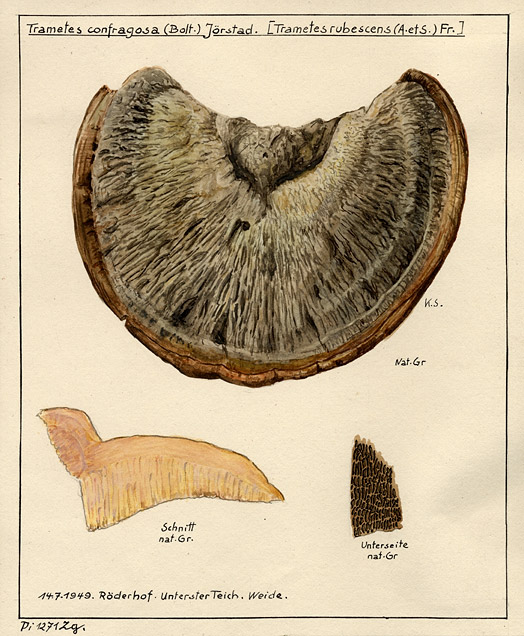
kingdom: Fungi
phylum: Basidiomycota
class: Agaricomycetes
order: Polyporales
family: Polyporaceae
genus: Daedaleopsis
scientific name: Daedaleopsis confragosa
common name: Blushing bracket
